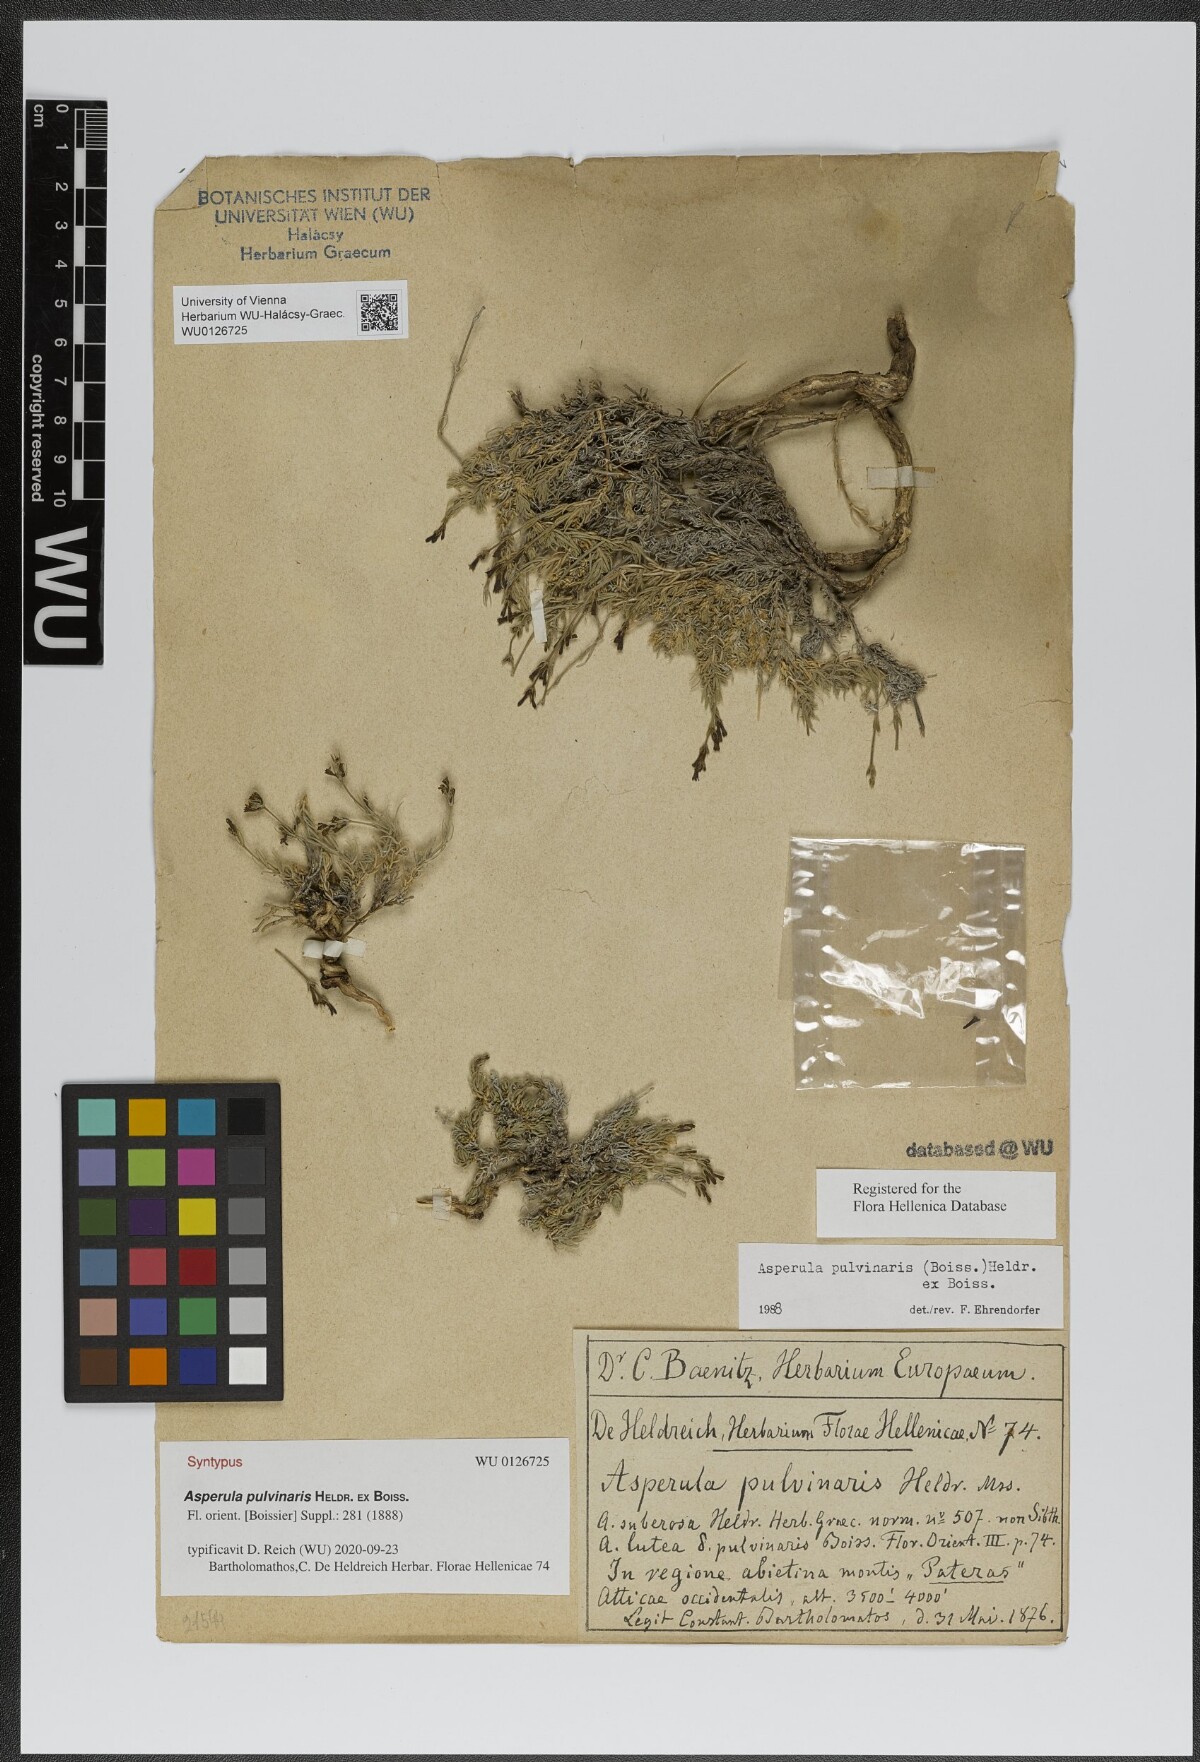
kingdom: Plantae
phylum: Tracheophyta
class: Magnoliopsida
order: Gentianales
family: Rubiaceae
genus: Cynanchica
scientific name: Cynanchica pulvinaris
